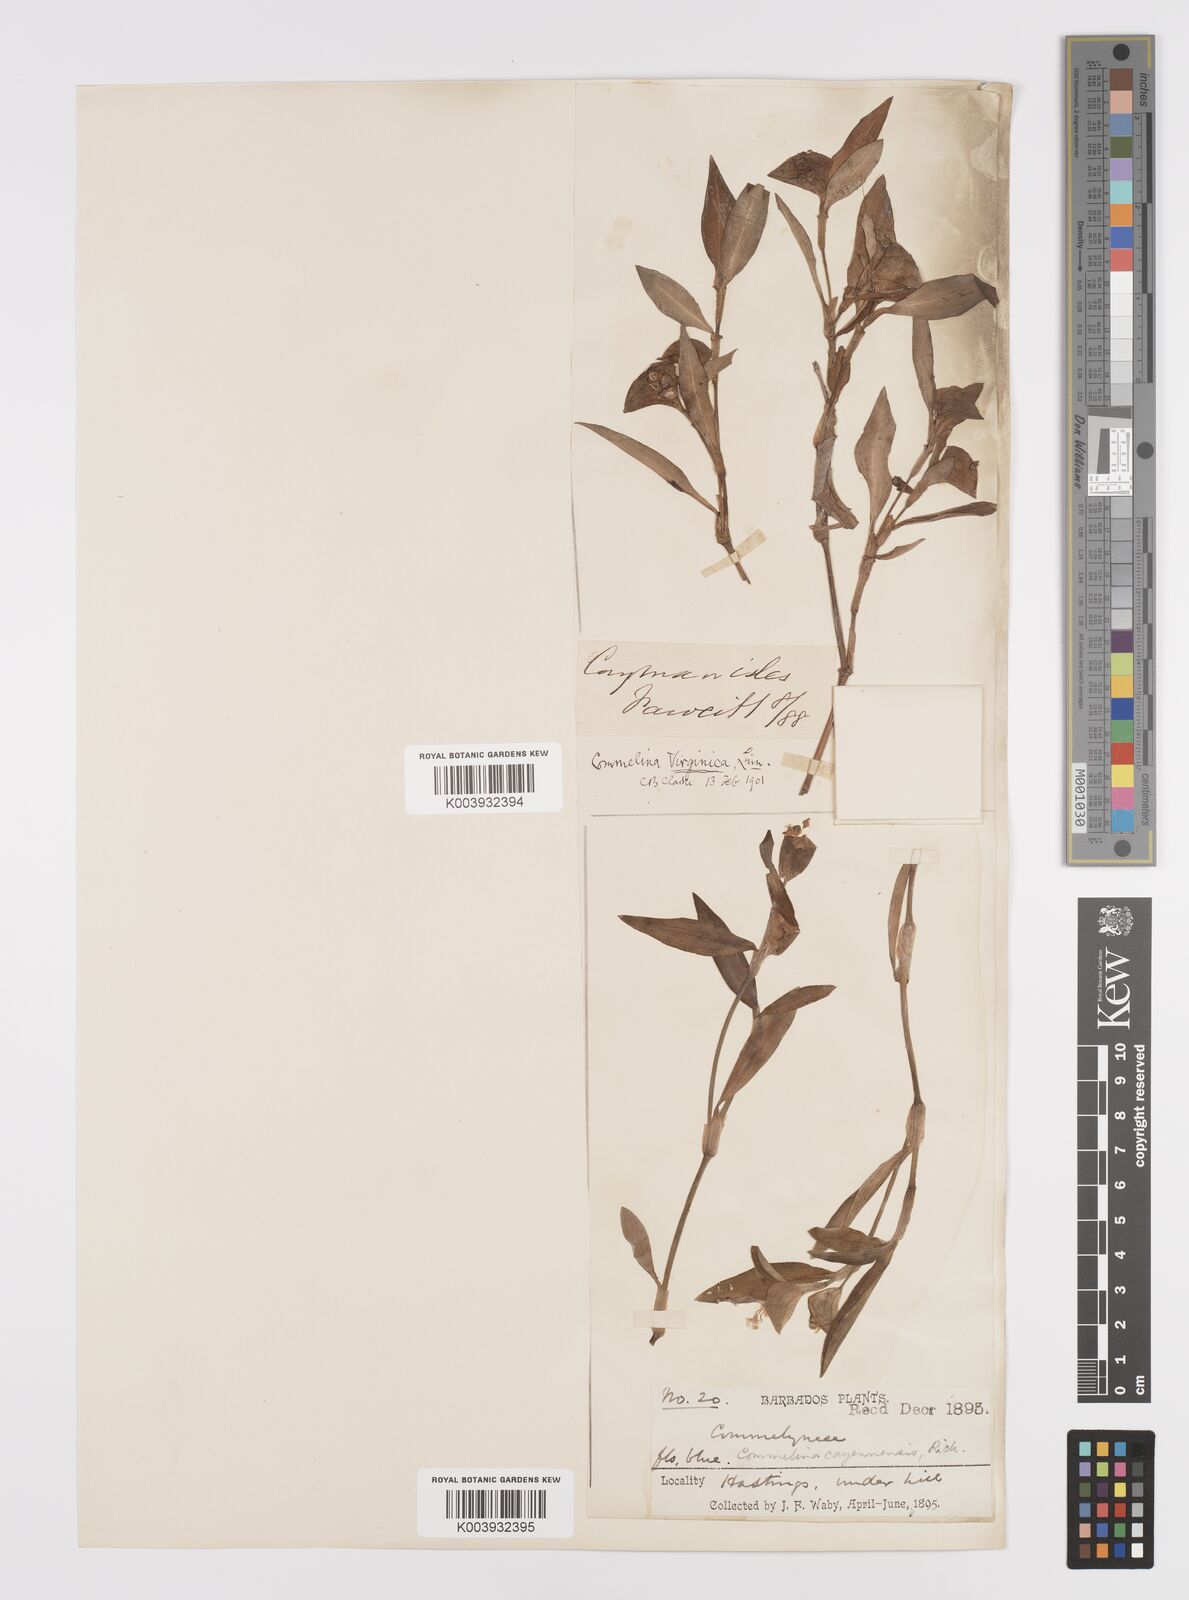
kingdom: Plantae
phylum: Tracheophyta
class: Liliopsida
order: Commelinales
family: Commelinaceae
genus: Commelina
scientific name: Commelina virginica
